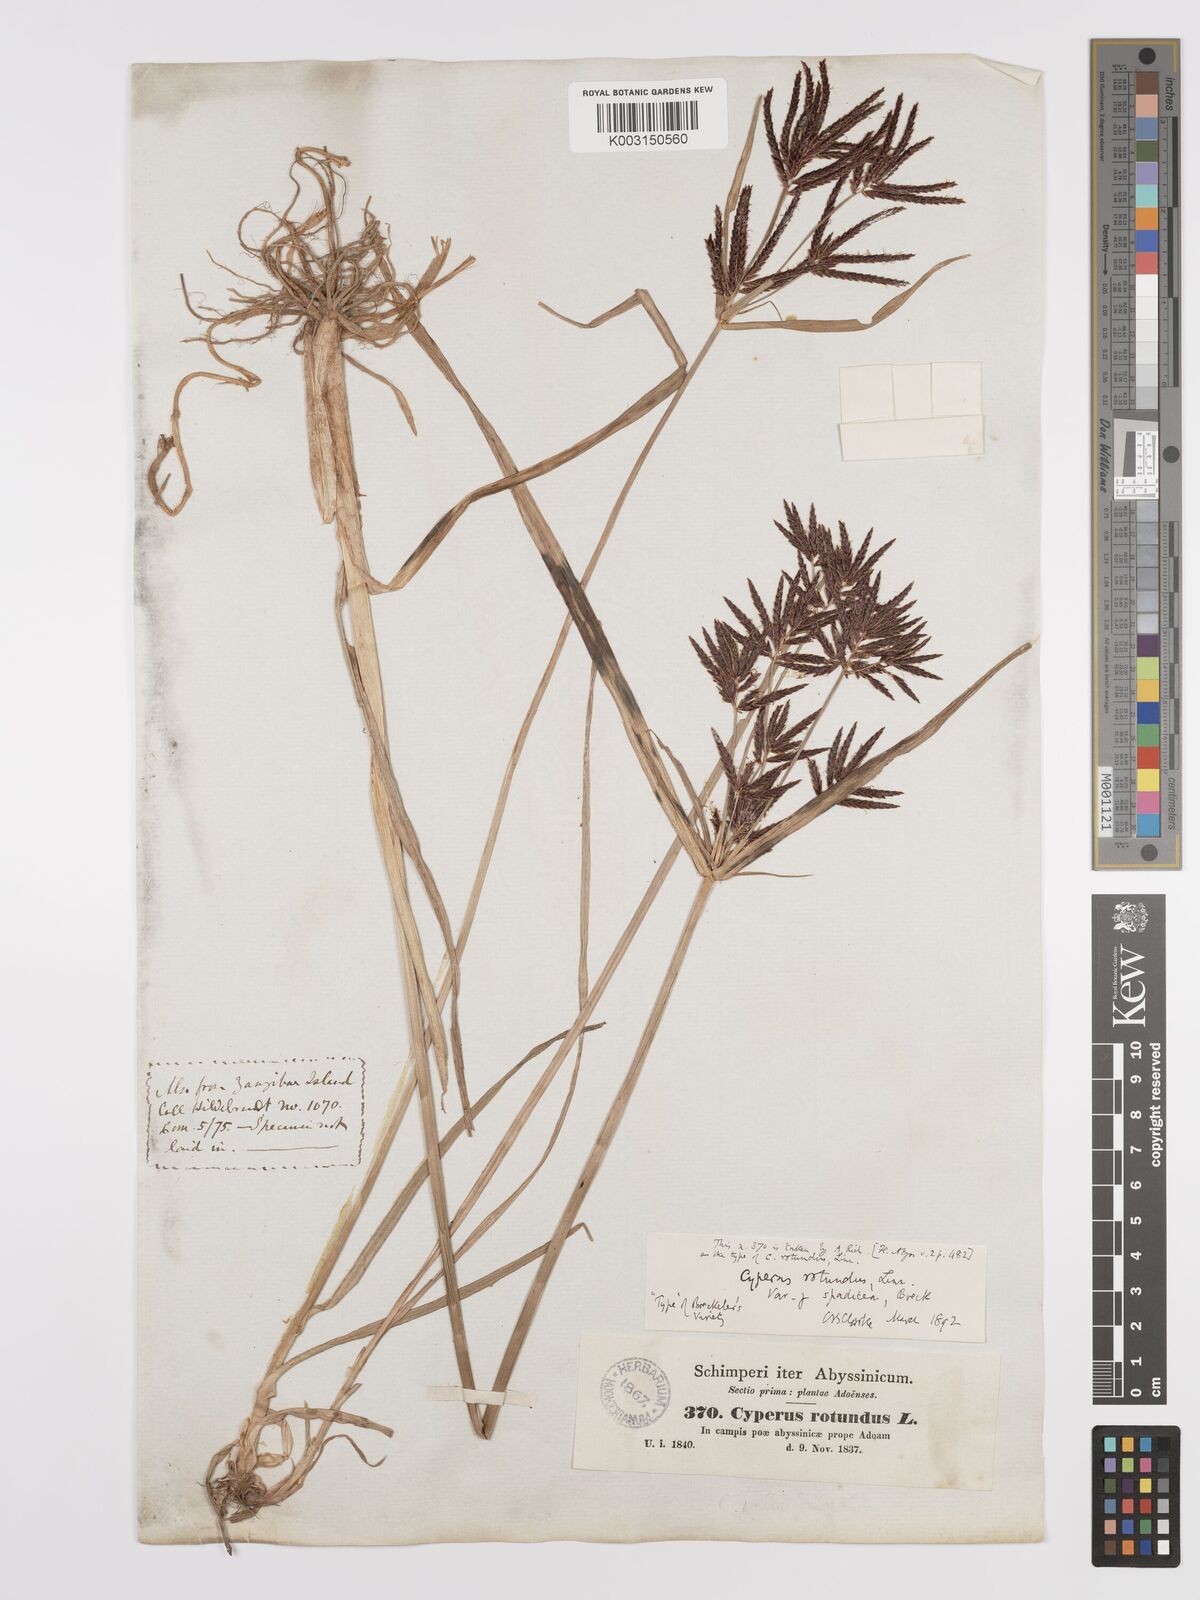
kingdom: Plantae
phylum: Tracheophyta
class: Liliopsida
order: Poales
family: Cyperaceae
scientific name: Cyperaceae
